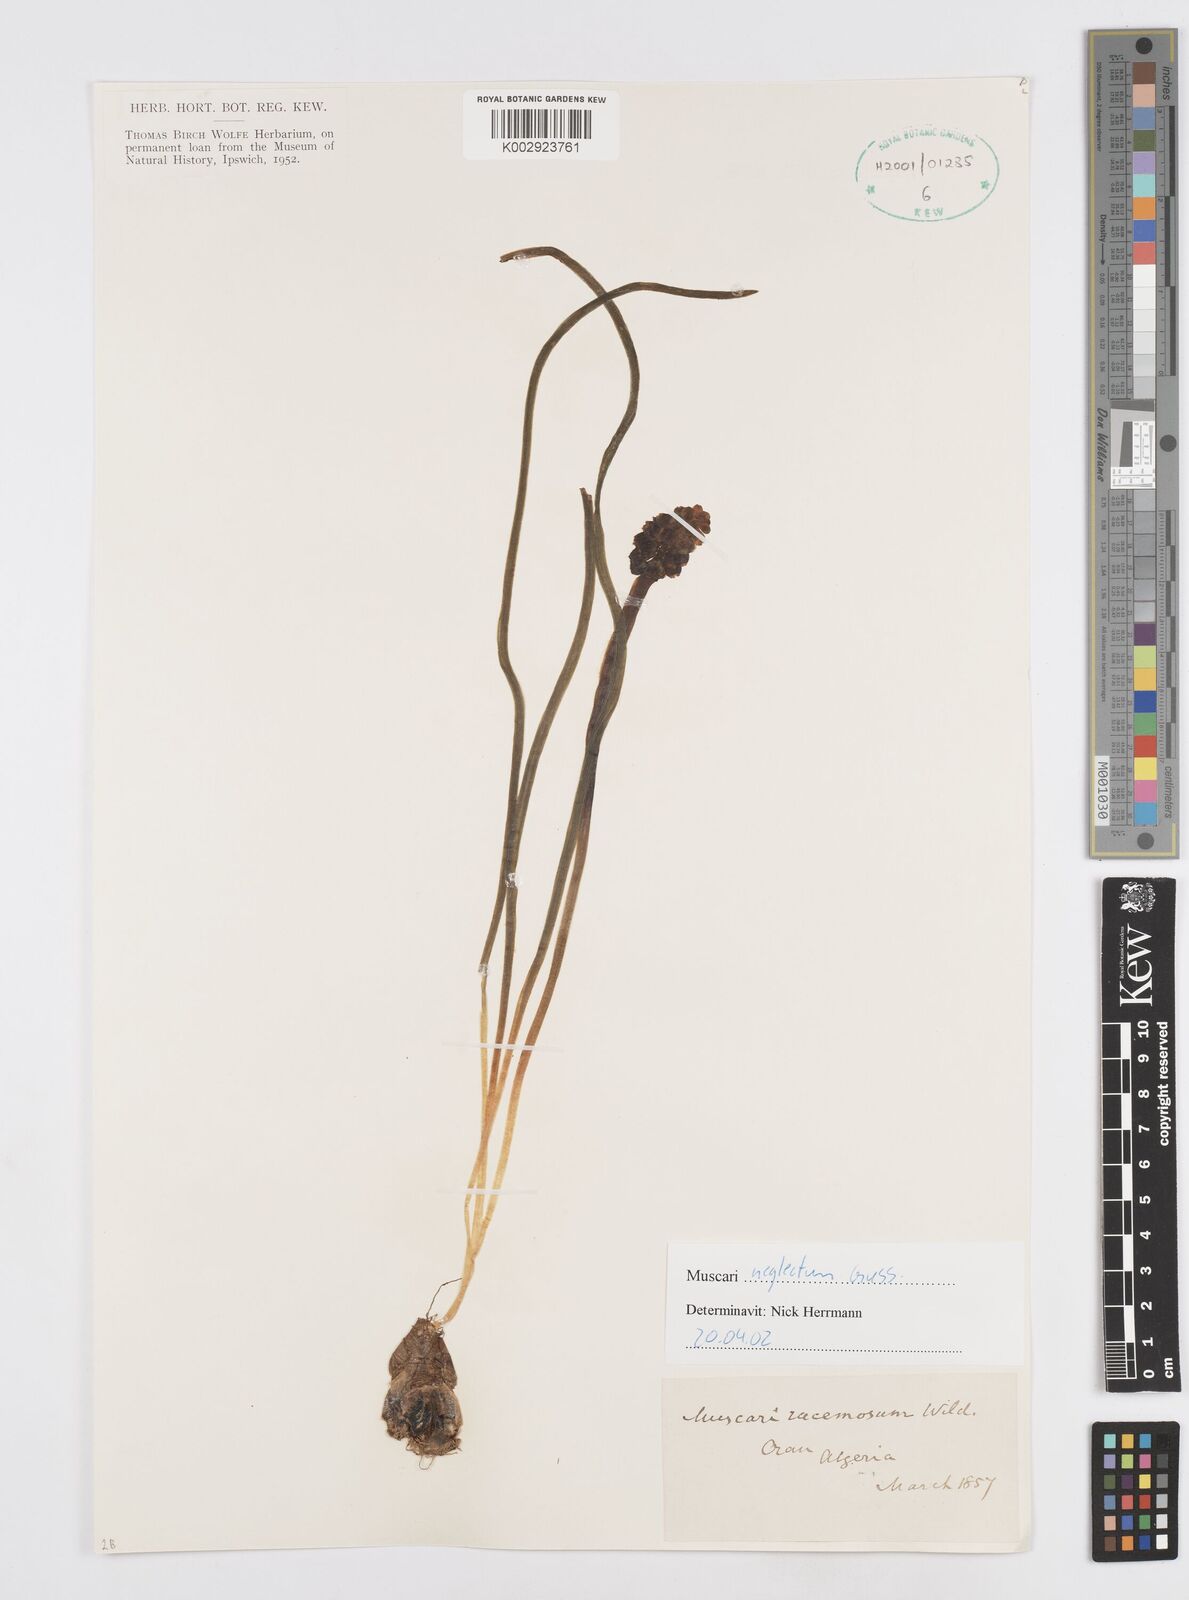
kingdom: Plantae
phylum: Tracheophyta
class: Liliopsida
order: Asparagales
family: Asparagaceae
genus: Muscari
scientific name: Muscari neglectum
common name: Grape-hyacinth
